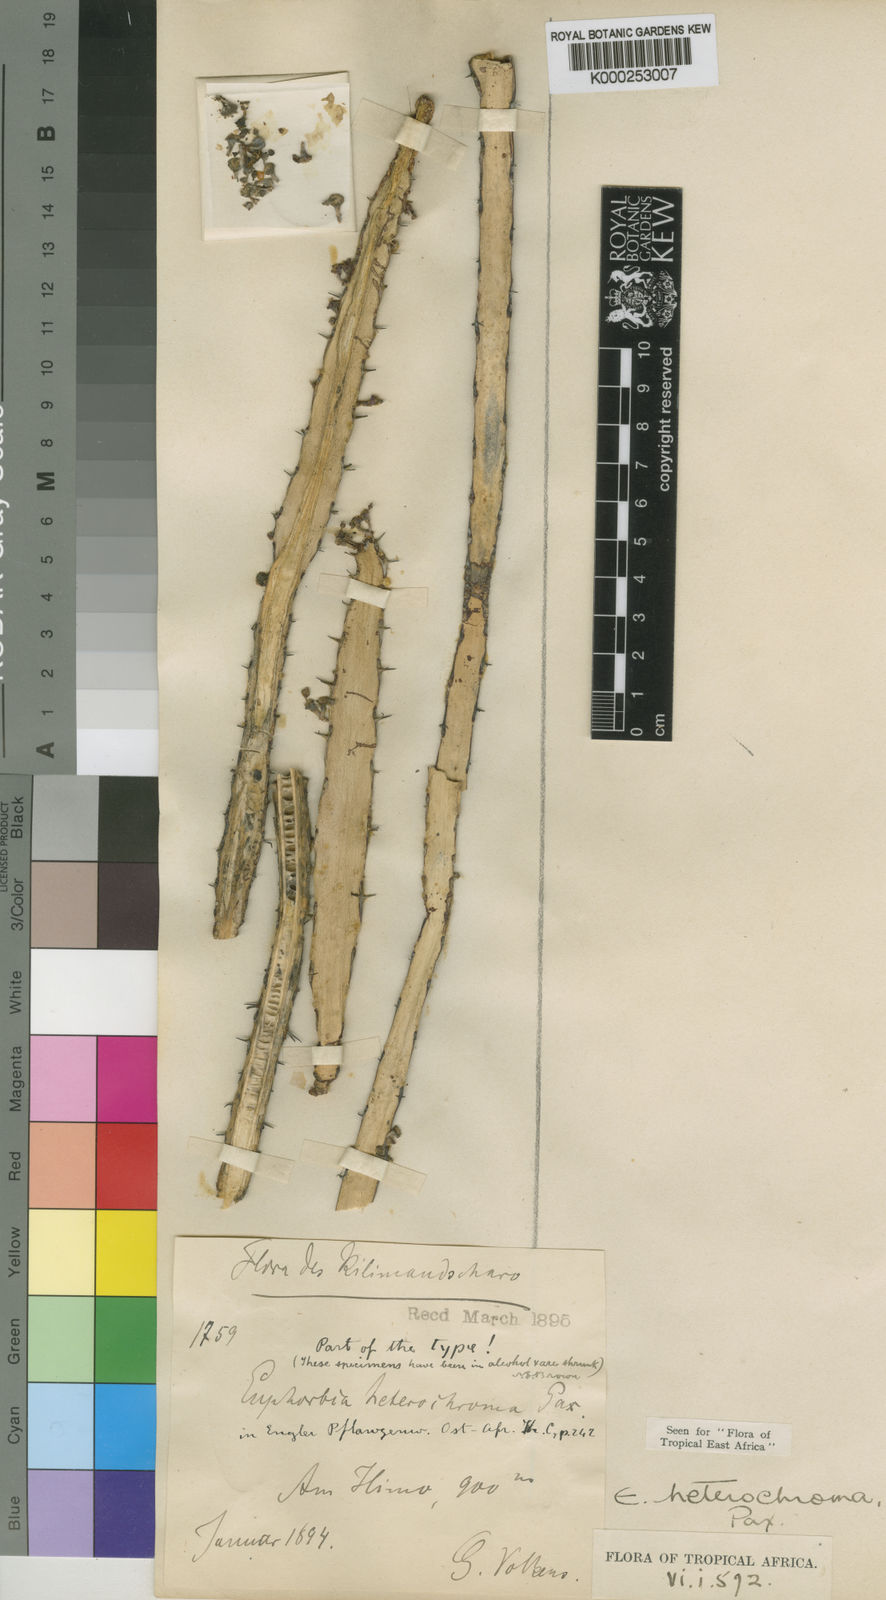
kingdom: Plantae
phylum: Tracheophyta
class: Magnoliopsida
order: Malpighiales
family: Euphorbiaceae
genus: Euphorbia
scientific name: Euphorbia heterochroma
